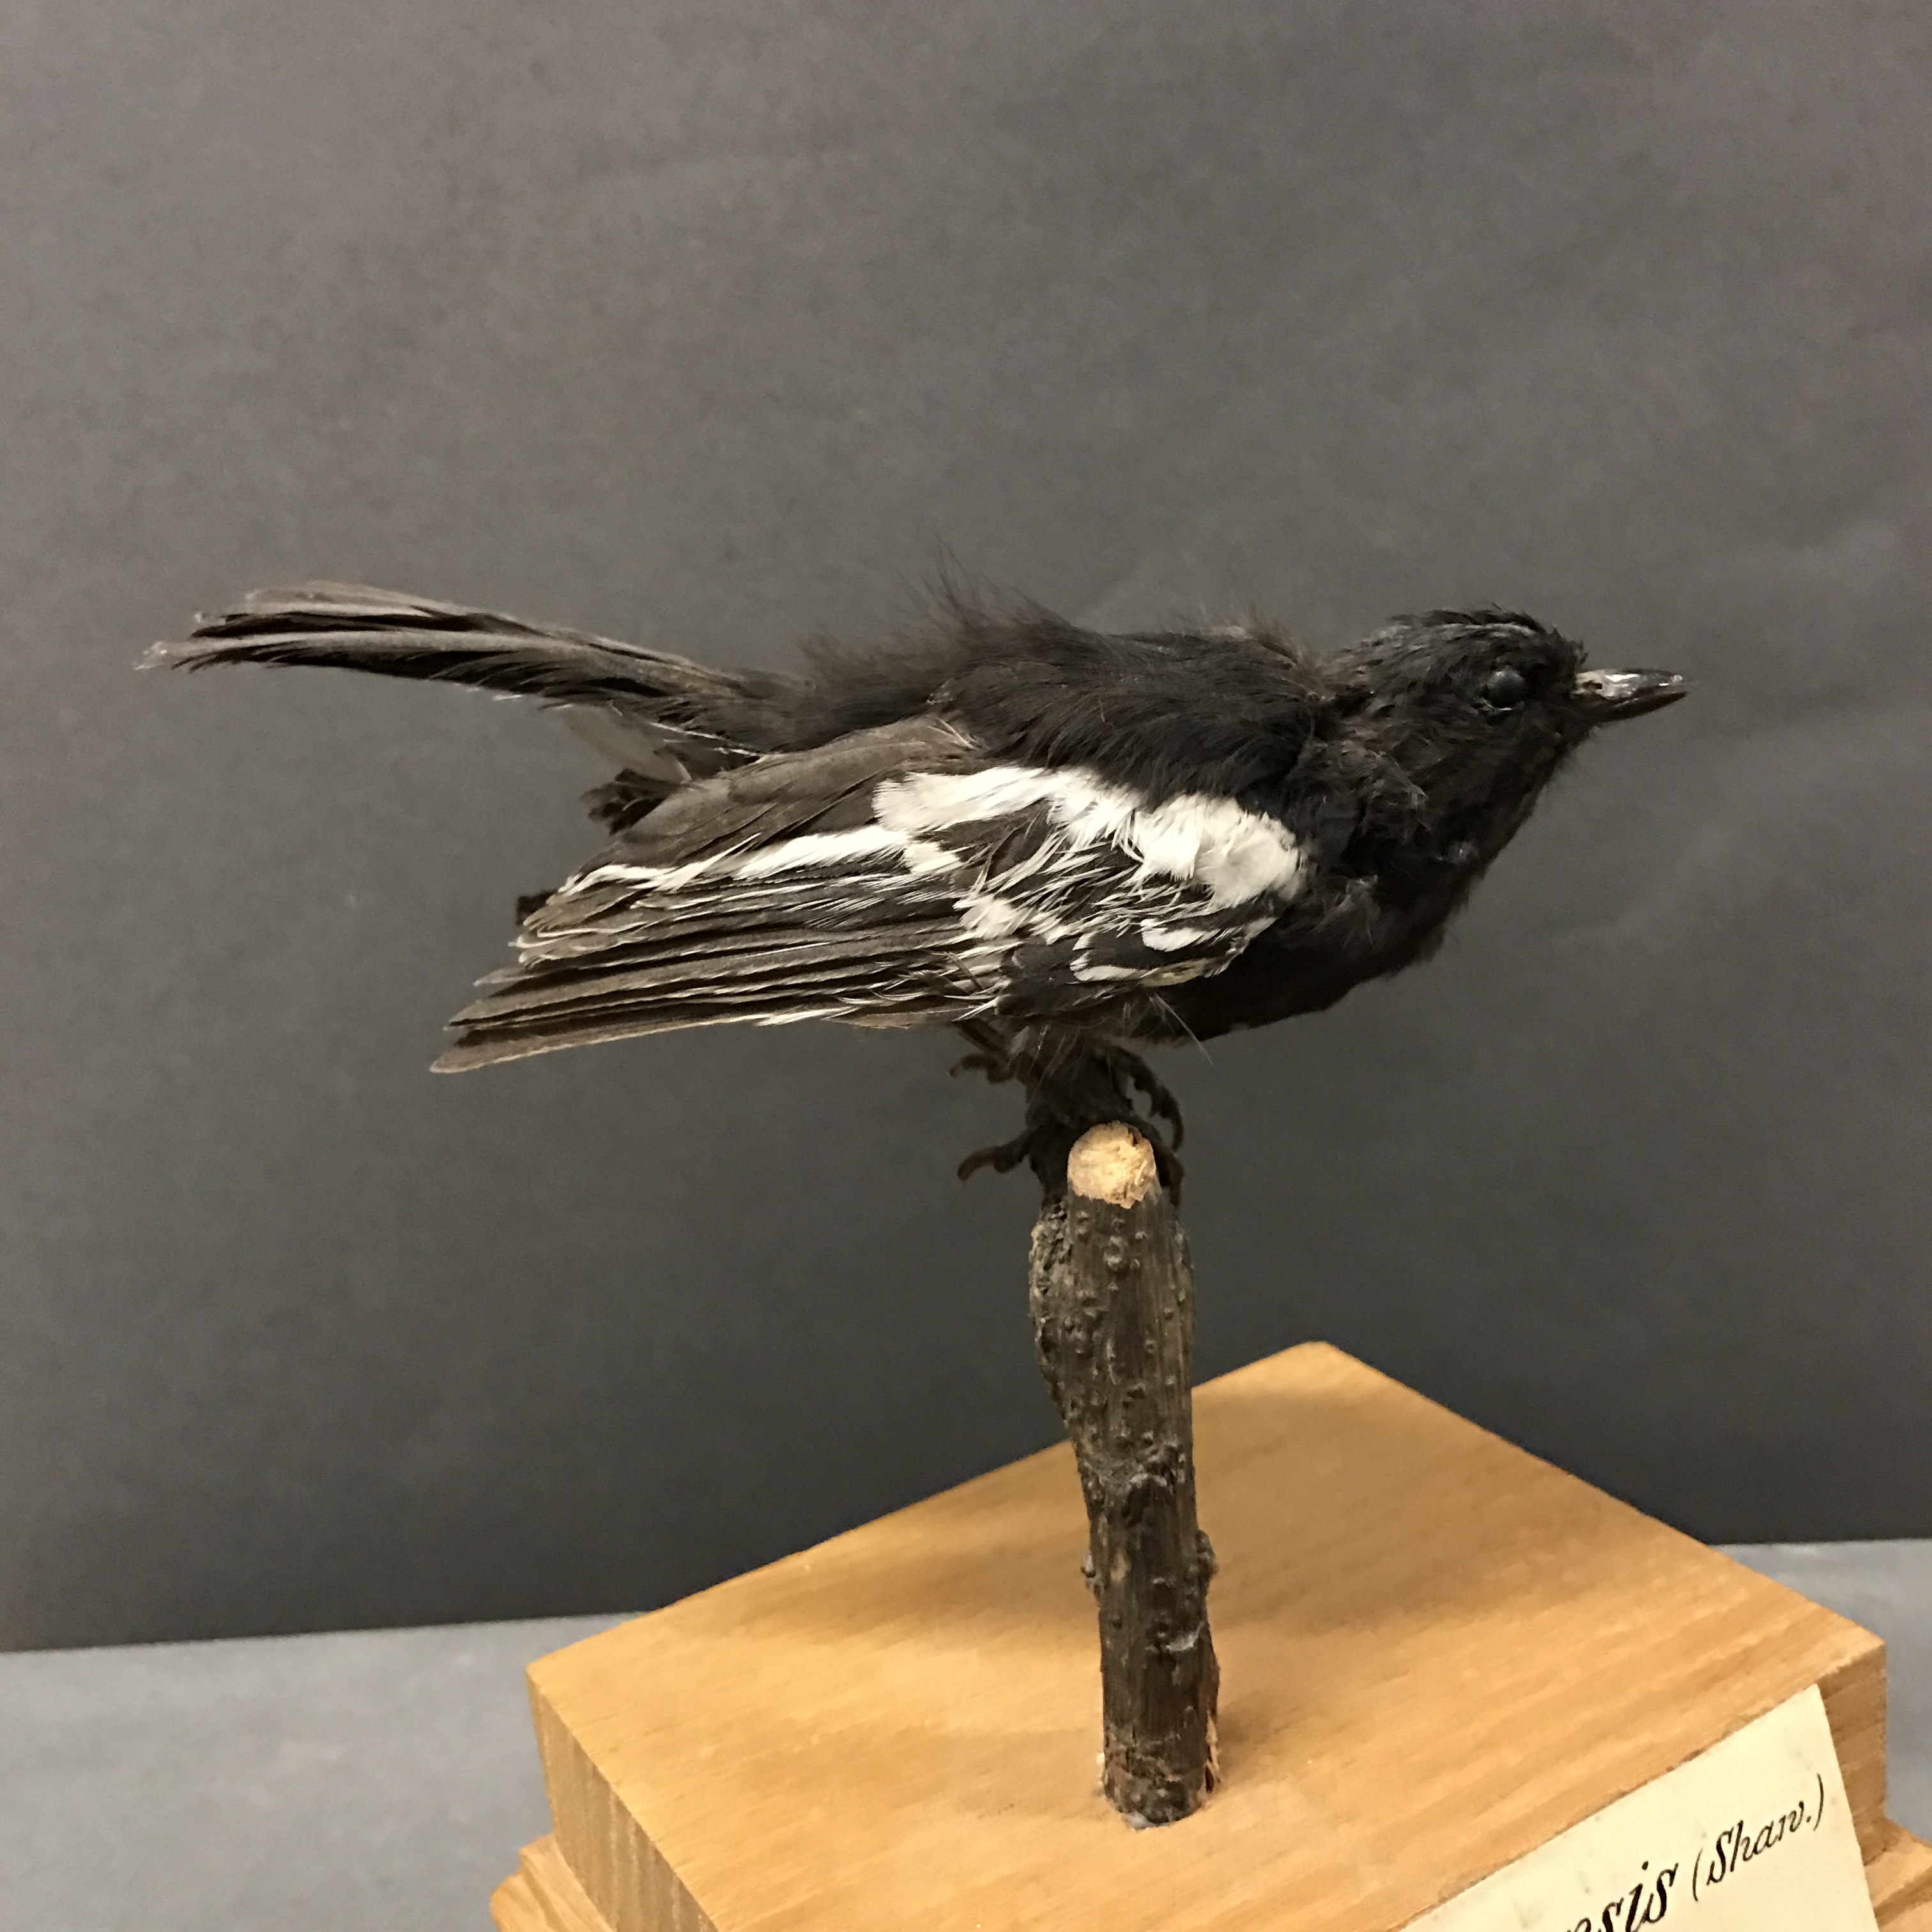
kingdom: Animalia
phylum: Chordata
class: Aves
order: Passeriformes
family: Paridae
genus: Parus
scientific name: Parus albiventris
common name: White-bellied tit
